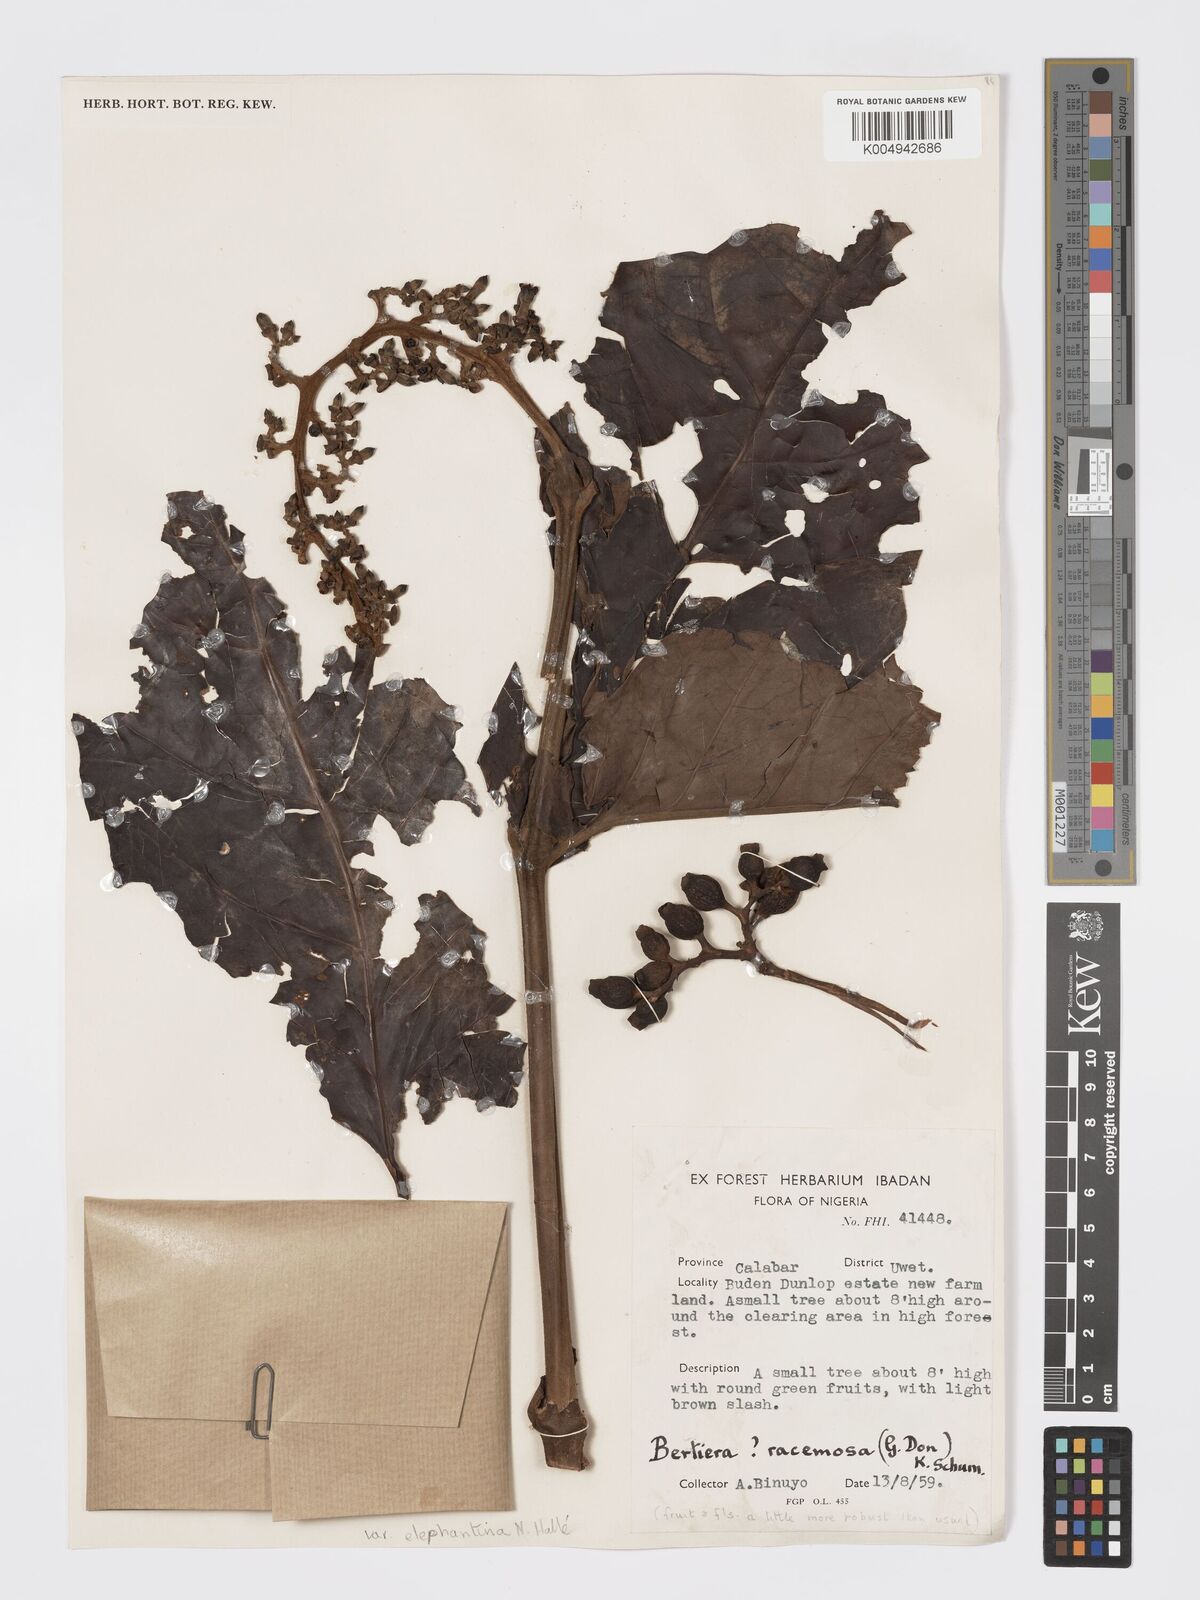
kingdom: Plantae
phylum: Tracheophyta
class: Magnoliopsida
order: Gentianales
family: Rubiaceae
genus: Bertiera
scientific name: Bertiera racemosa
